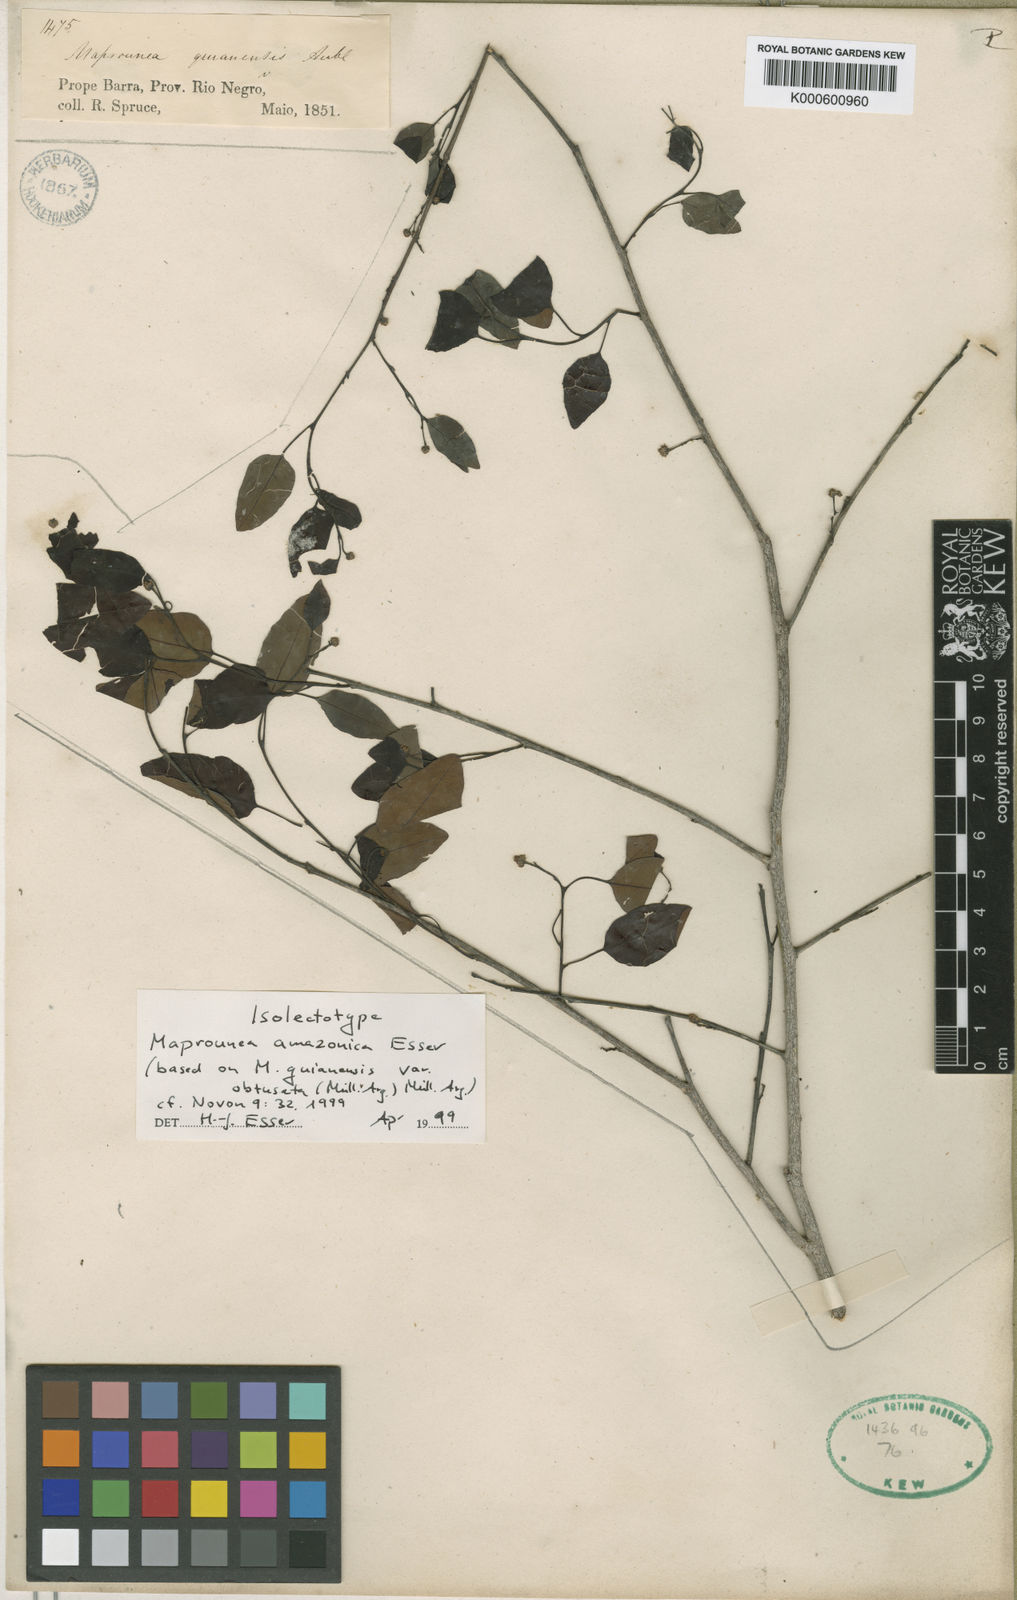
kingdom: Plantae
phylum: Tracheophyta
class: Magnoliopsida
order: Malpighiales
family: Euphorbiaceae
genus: Maprounea
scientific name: Maprounea brasiliensis
